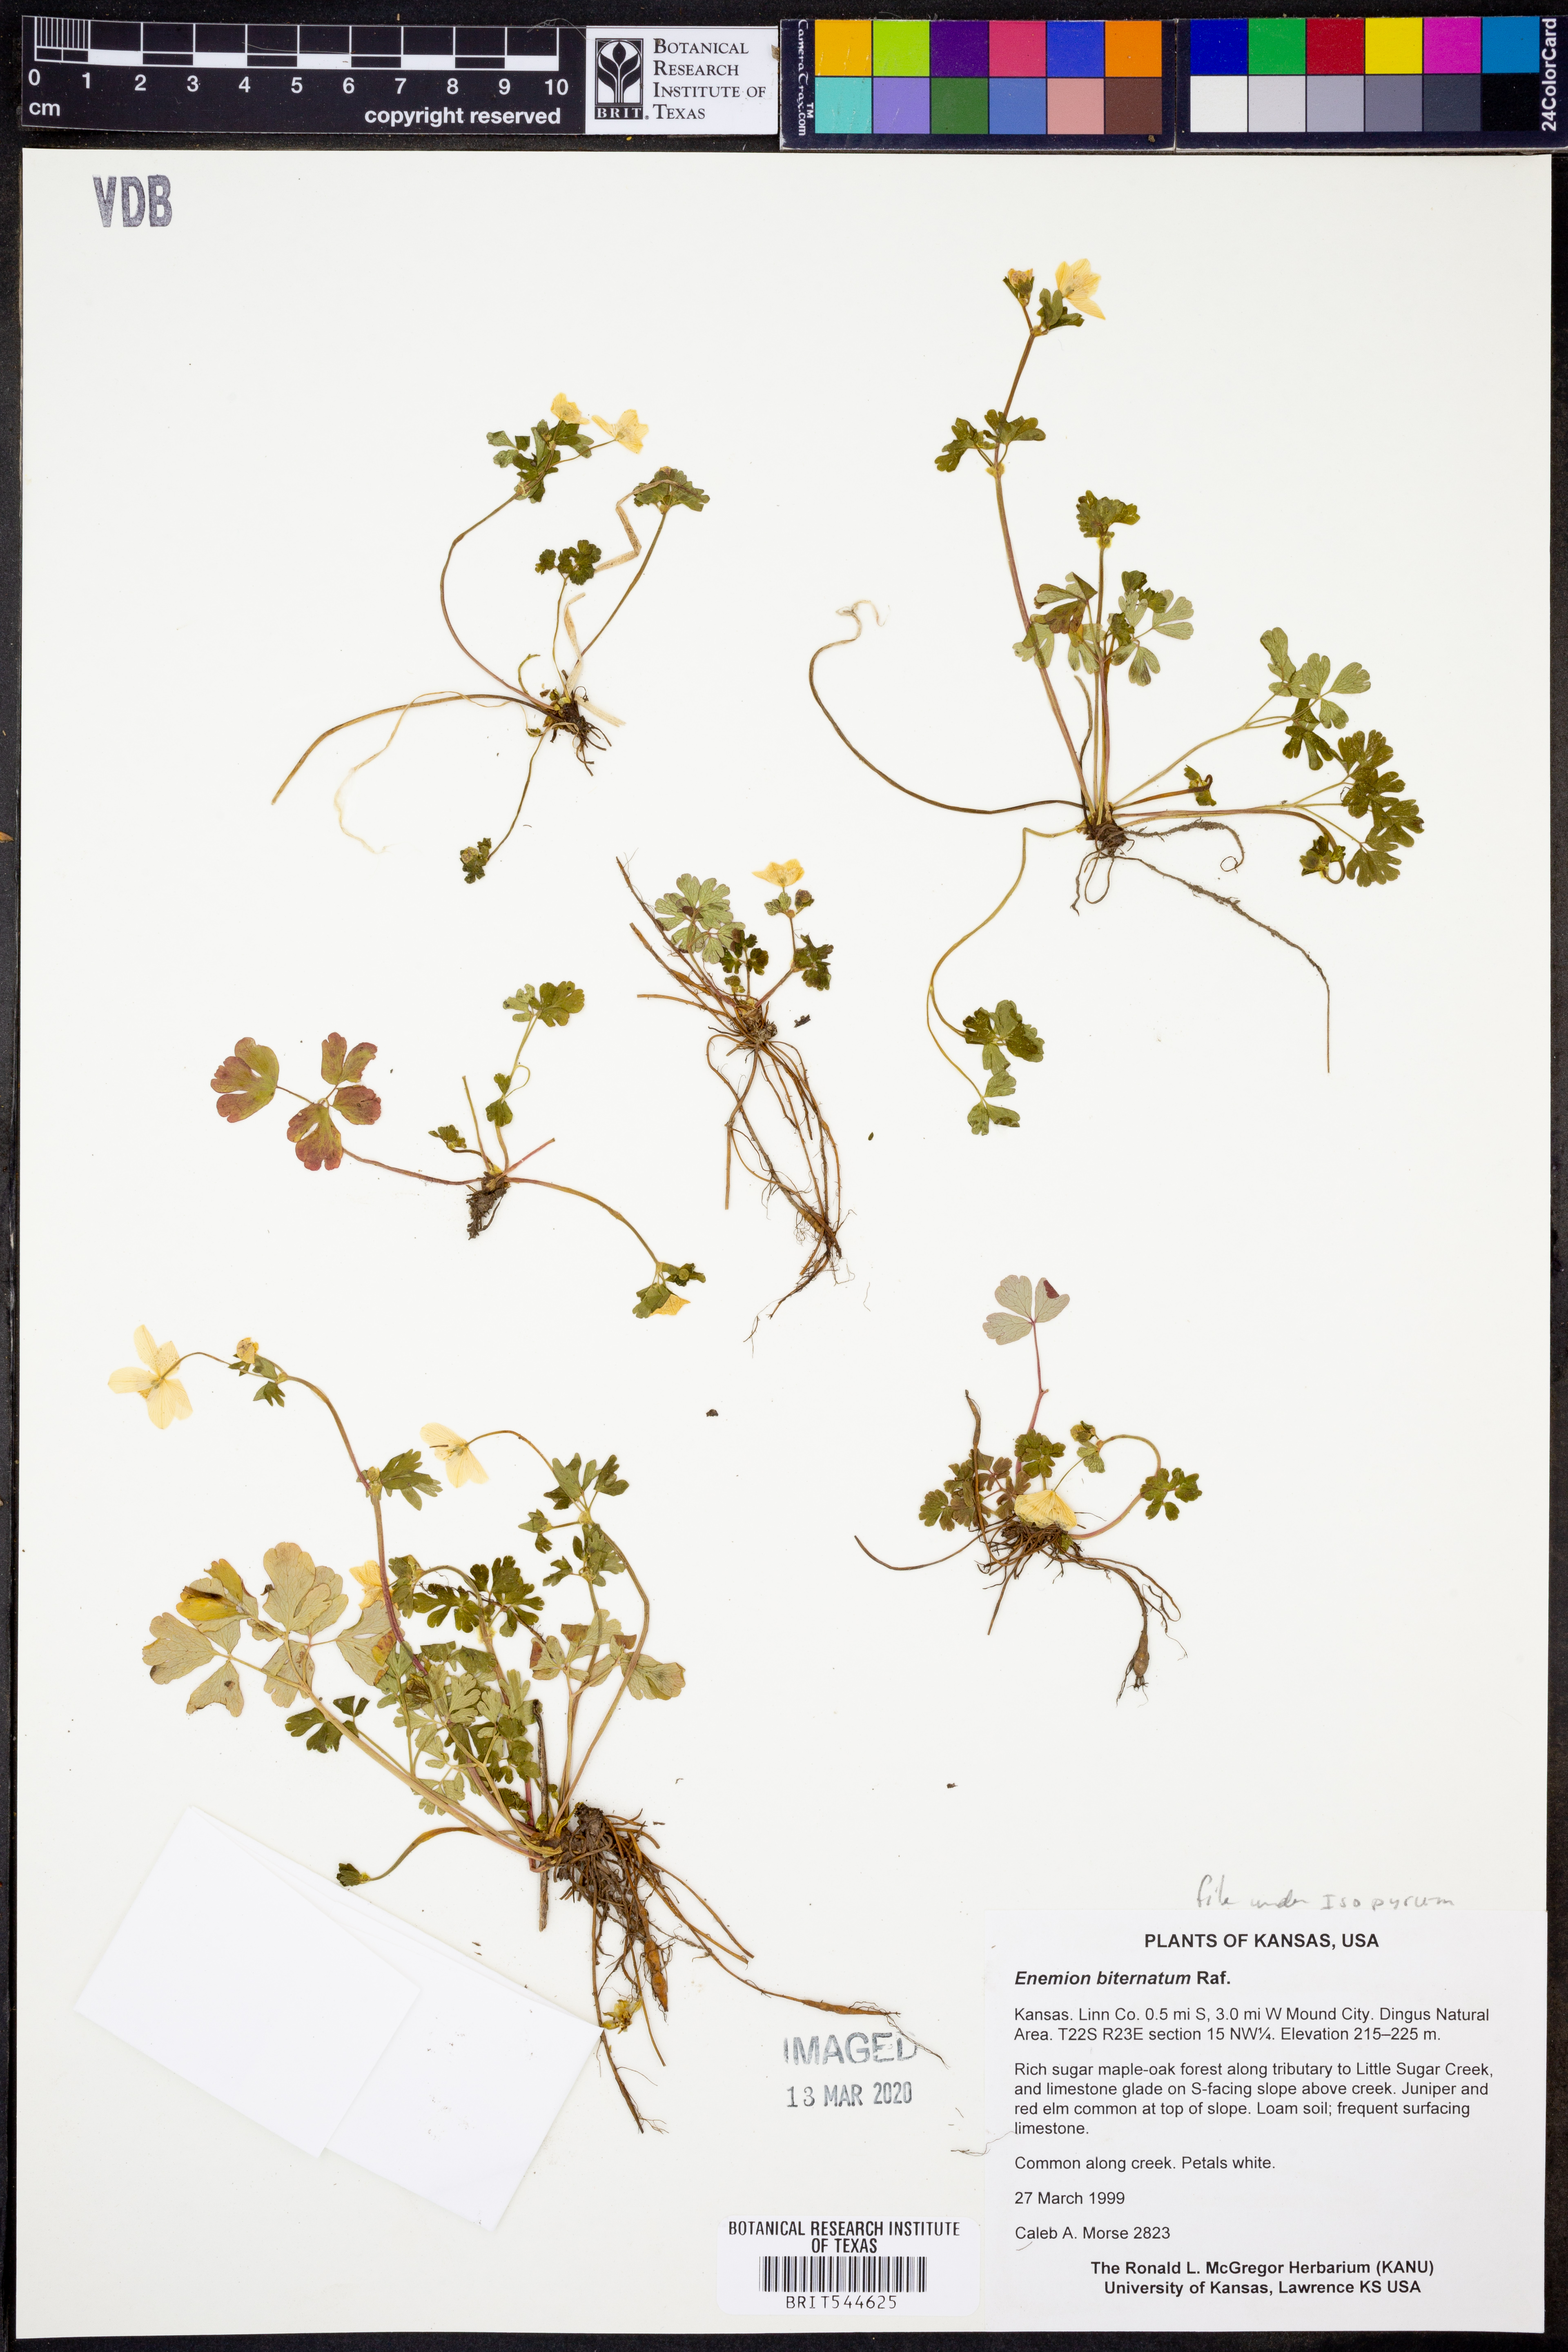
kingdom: Plantae
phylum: Tracheophyta
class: Magnoliopsida
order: Ranunculales
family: Ranunculaceae
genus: Enemion
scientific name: Enemion biternatum
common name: Eastern false rue-anemone
